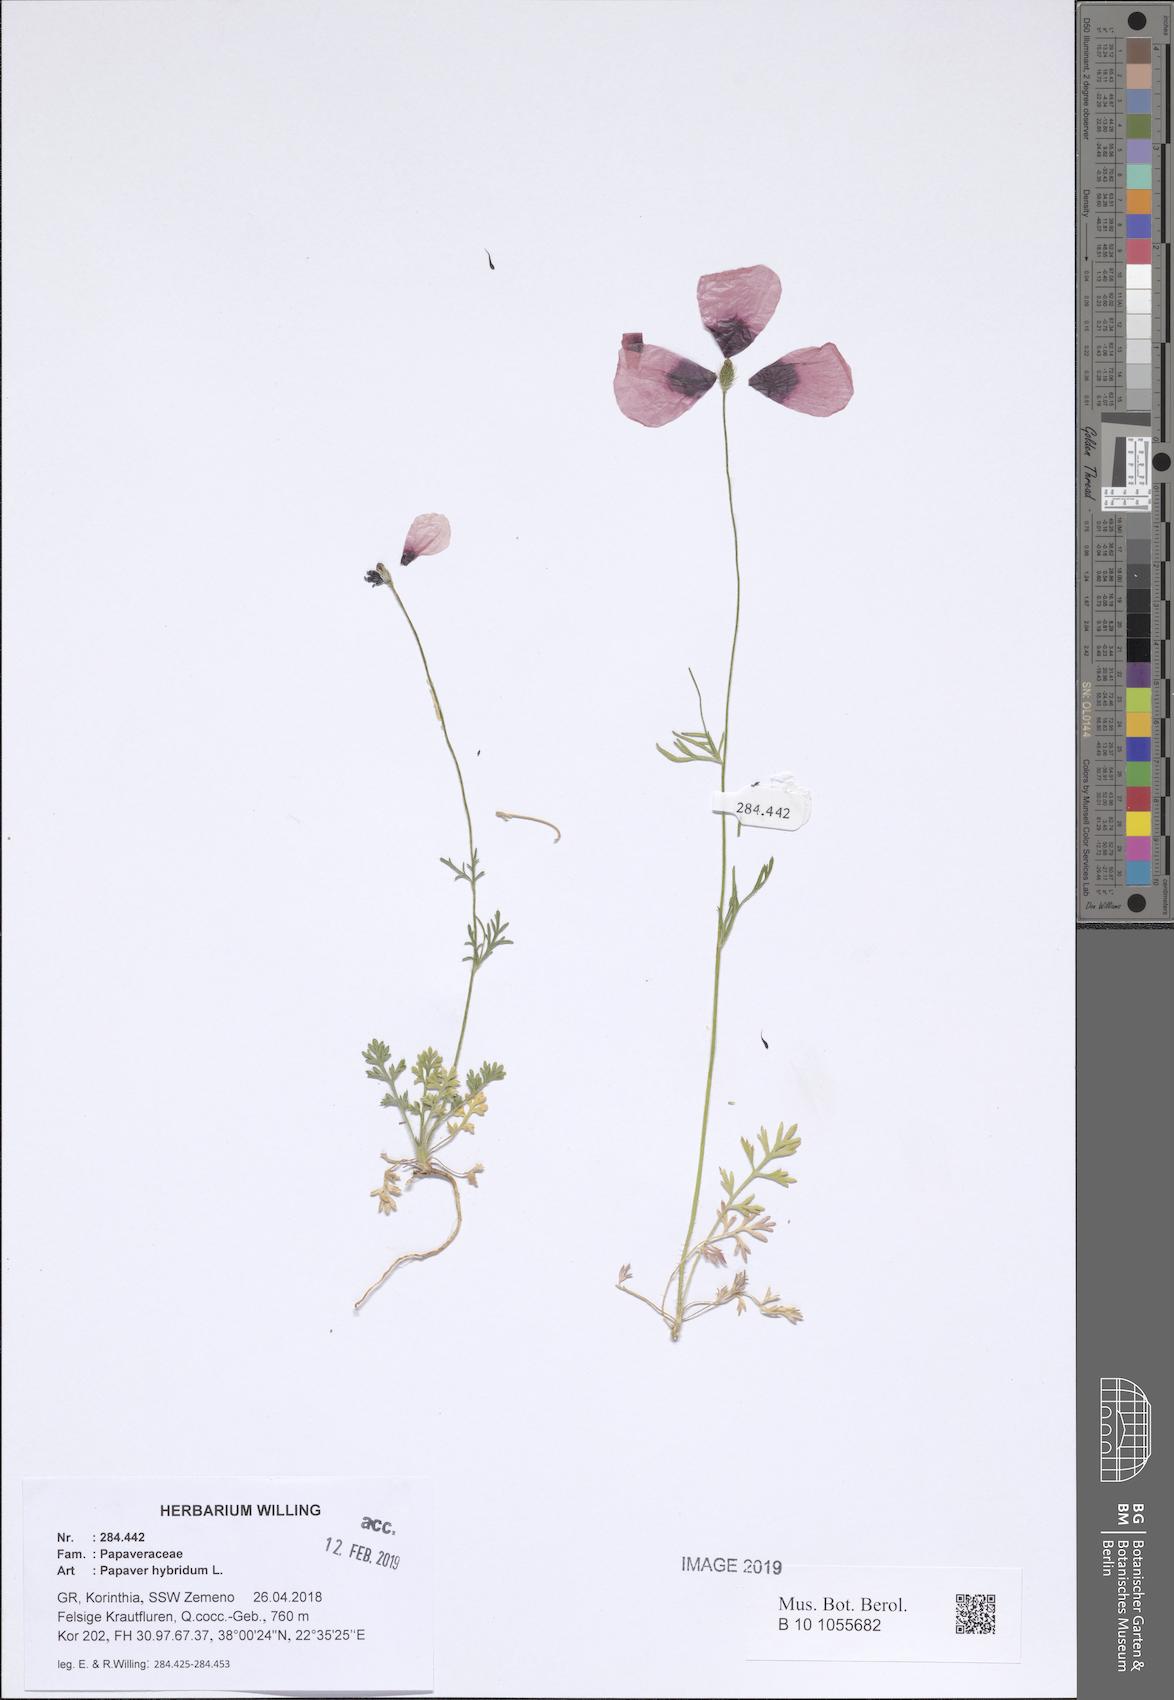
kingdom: Plantae
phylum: Tracheophyta
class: Magnoliopsida
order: Ranunculales
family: Papaveraceae
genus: Roemeria
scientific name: Roemeria hispida
